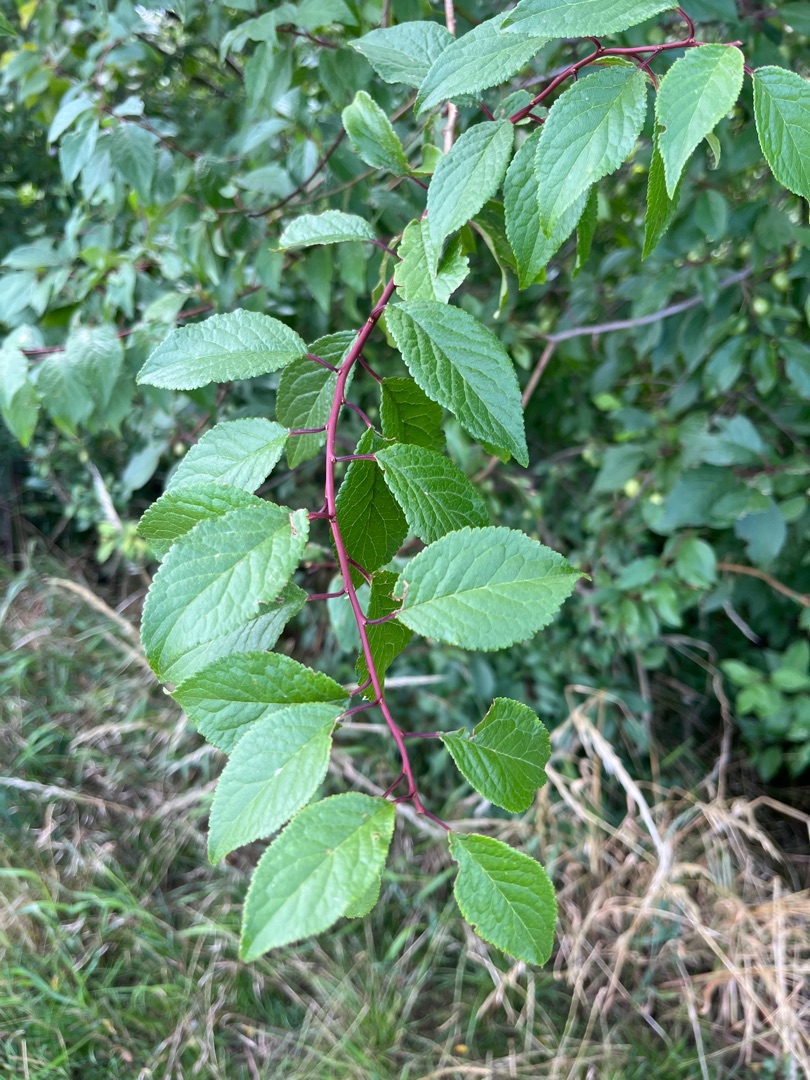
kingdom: Plantae
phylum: Tracheophyta
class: Magnoliopsida
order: Rosales
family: Rosaceae
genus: Prunus
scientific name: Prunus cerasifera
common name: Mirabel
